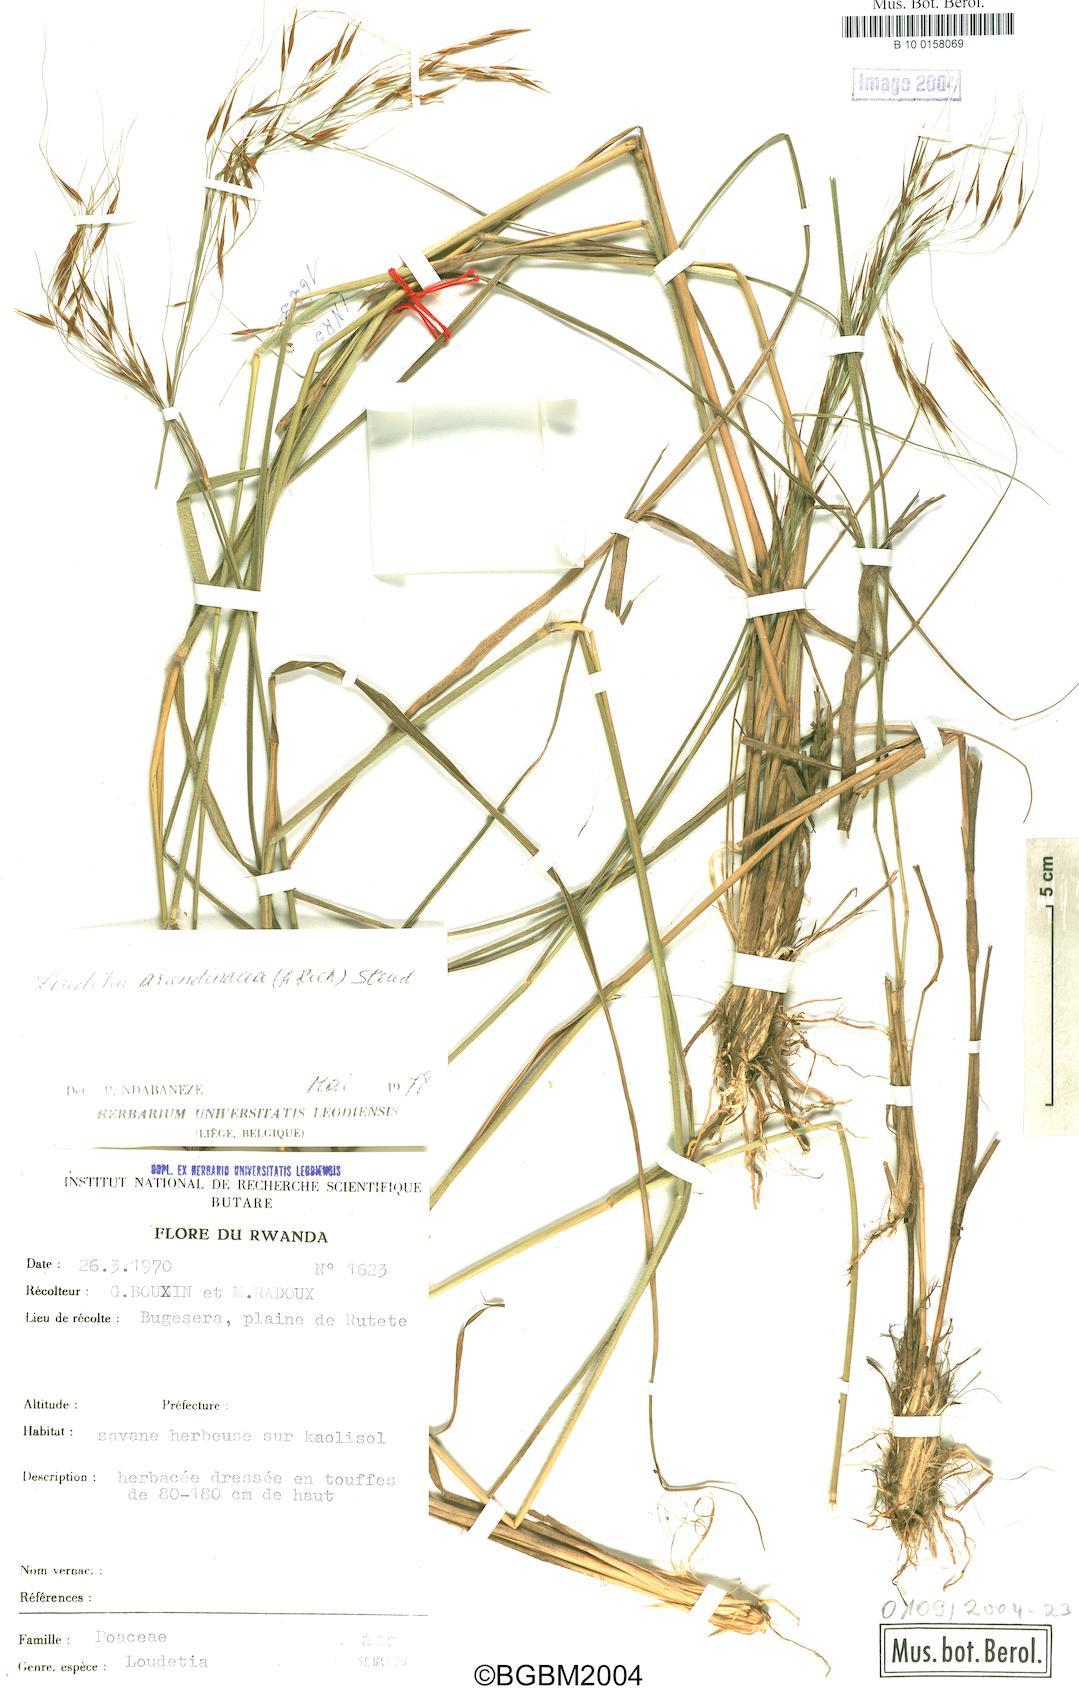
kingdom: Plantae
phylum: Tracheophyta
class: Liliopsida
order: Poales
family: Poaceae
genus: Loudetia
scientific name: Loudetia arundinacea
